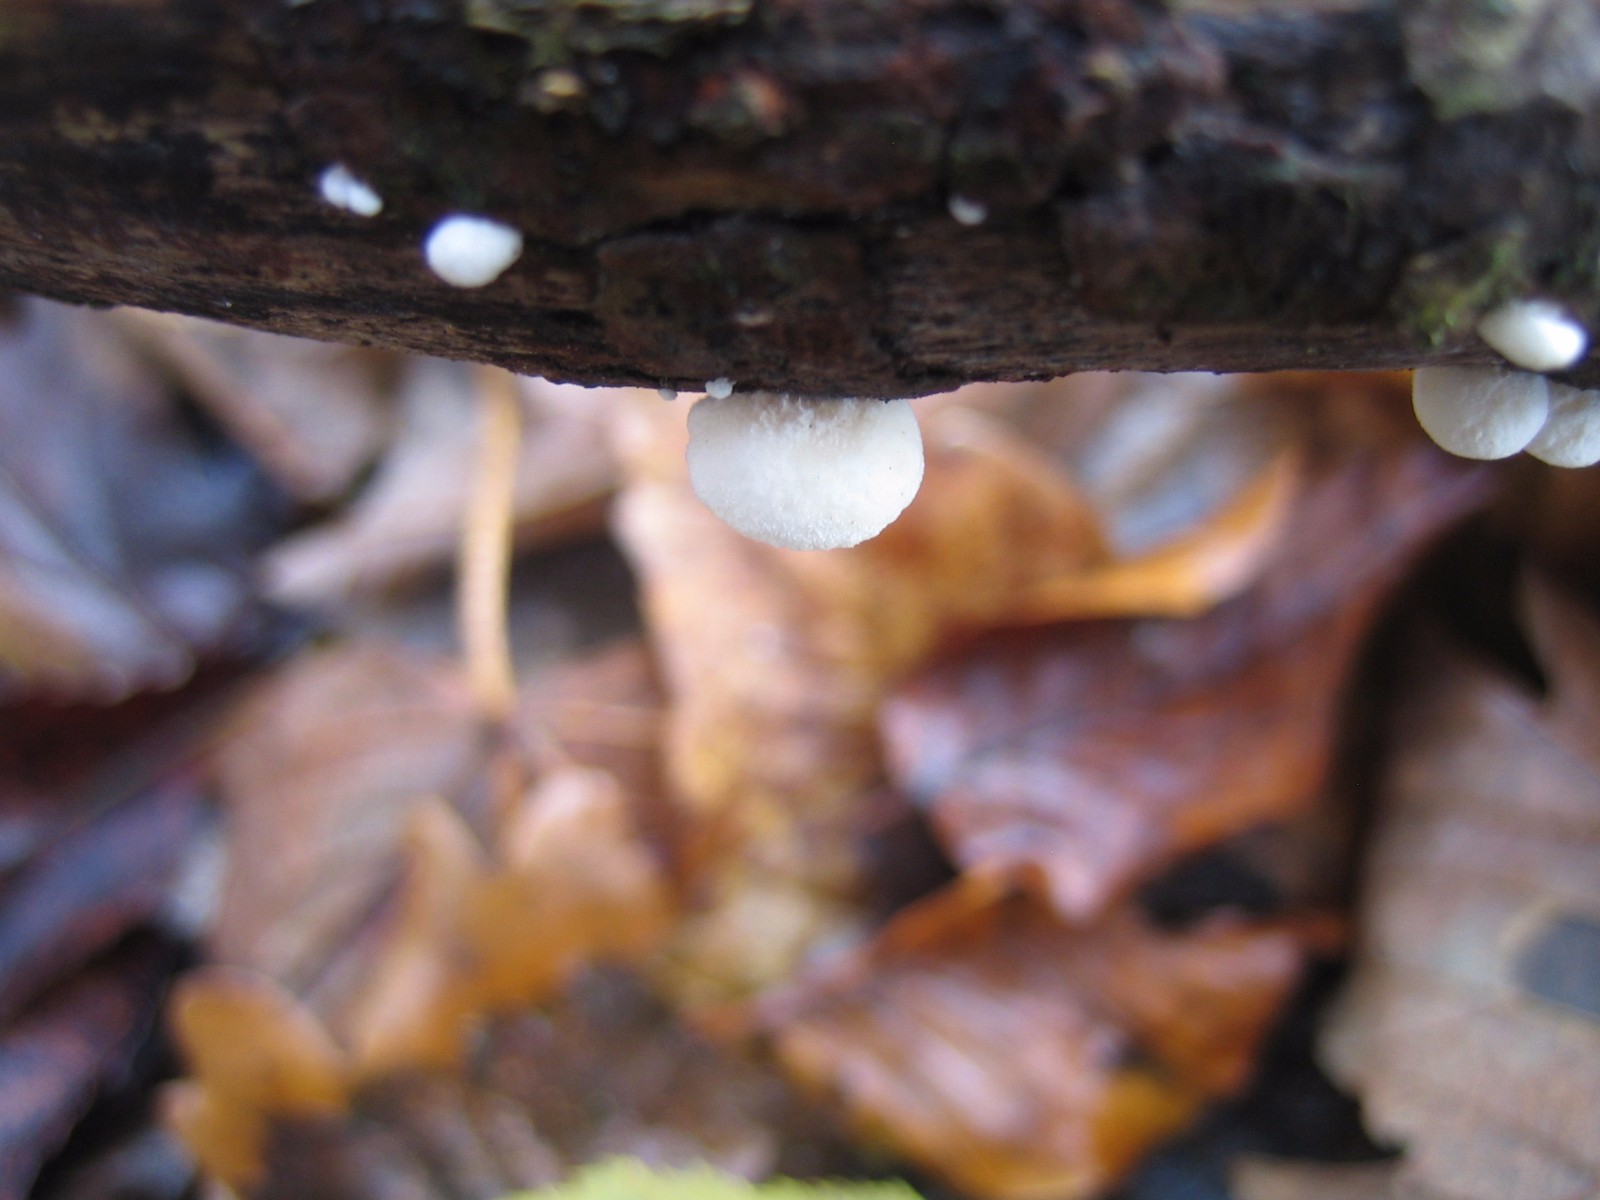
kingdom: Fungi
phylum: Basidiomycota
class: Agaricomycetes
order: Agaricales
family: Crepidotaceae
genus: Crepidotus
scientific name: Crepidotus
